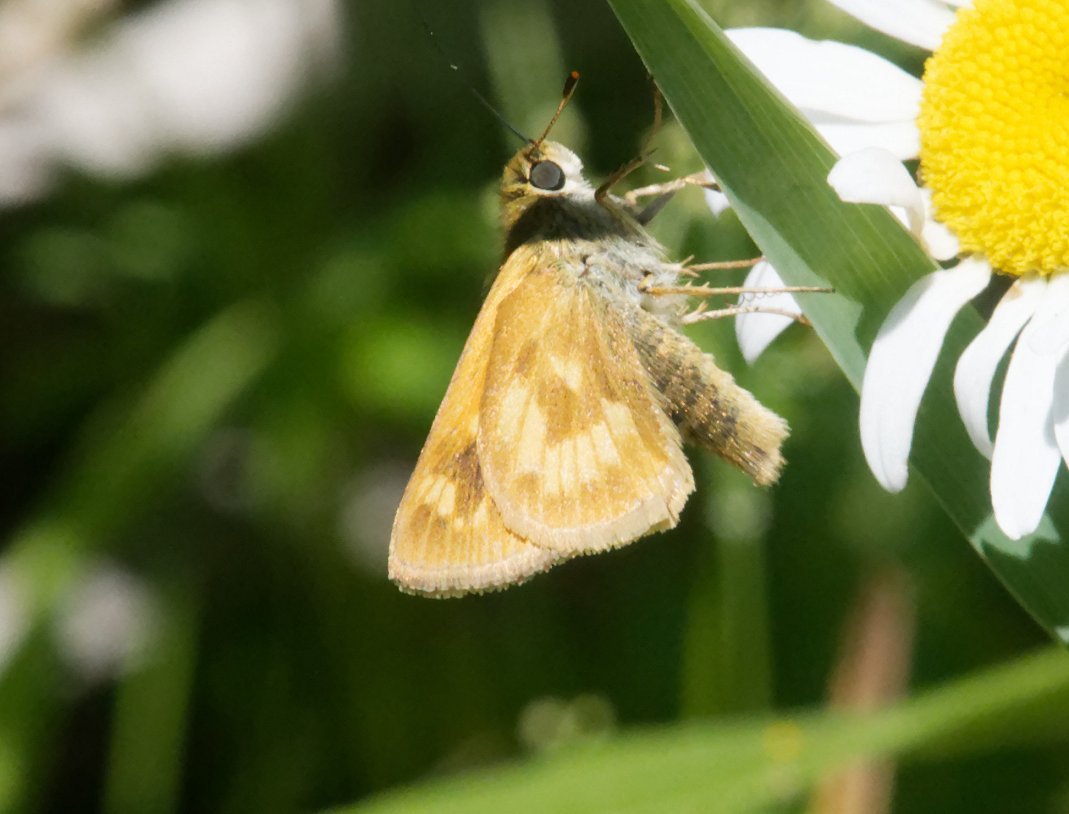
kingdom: Animalia
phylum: Arthropoda
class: Insecta
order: Lepidoptera
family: Hesperiidae
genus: Polites
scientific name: Polites
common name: Long Dash Skipper
